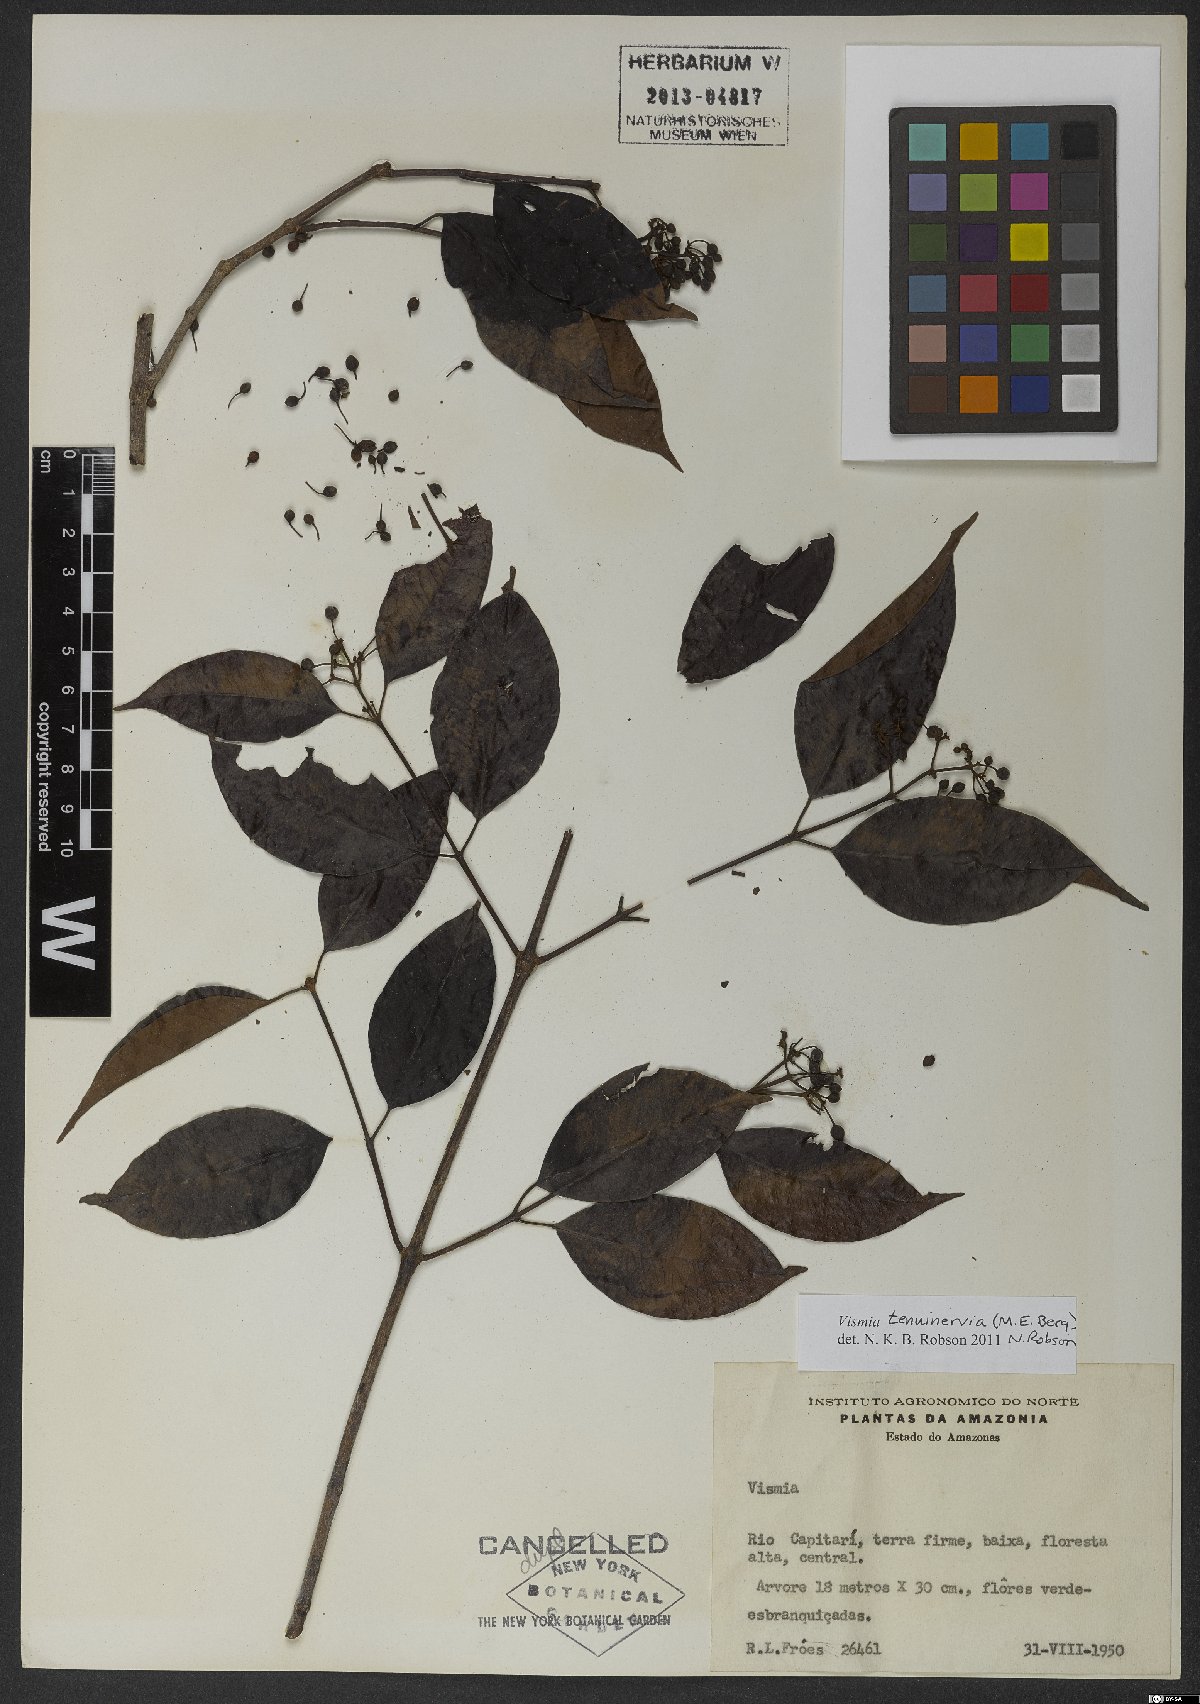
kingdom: Plantae
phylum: Tracheophyta
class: Magnoliopsida
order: Malpighiales
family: Hypericaceae
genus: Vismia
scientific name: Vismia tenuinervia
